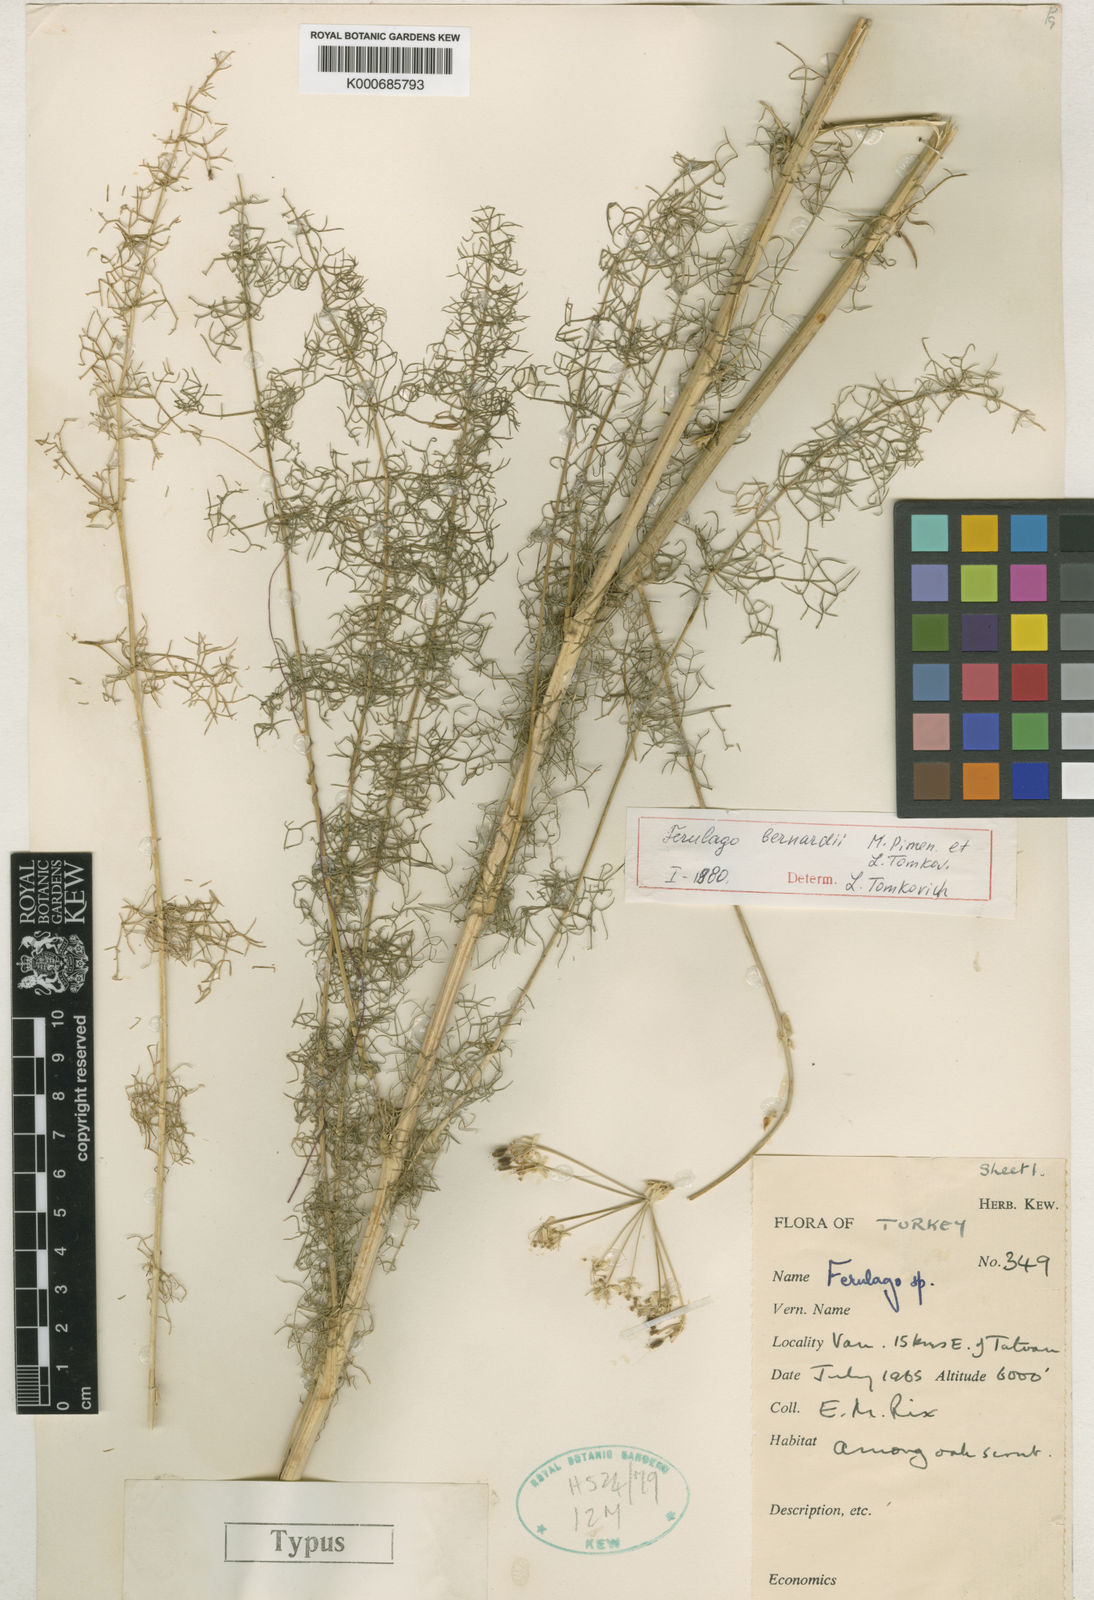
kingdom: Plantae
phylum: Tracheophyta
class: Magnoliopsida
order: Apiales
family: Apiaceae
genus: Ferulago
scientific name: Ferulago bernardii
